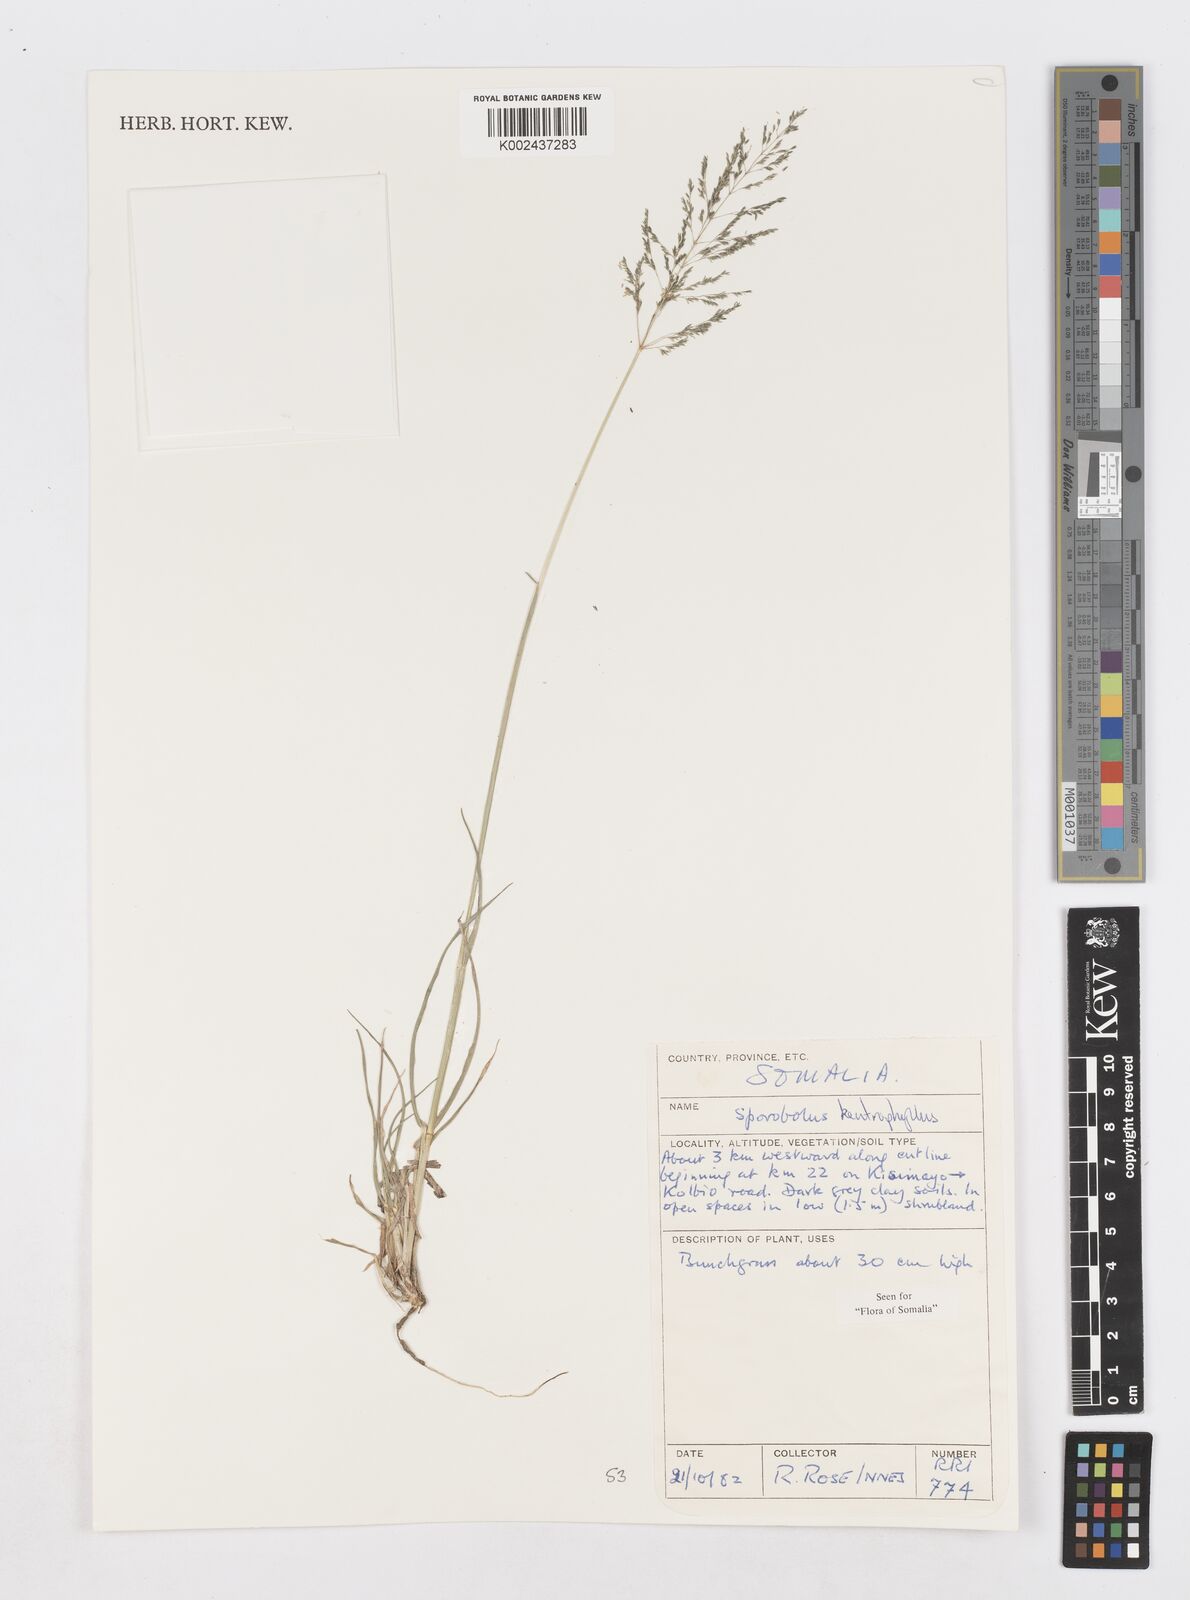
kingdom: Plantae
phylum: Tracheophyta
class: Liliopsida
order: Poales
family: Poaceae
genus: Sporobolus
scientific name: Sporobolus ioclados
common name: Pan dropseed
